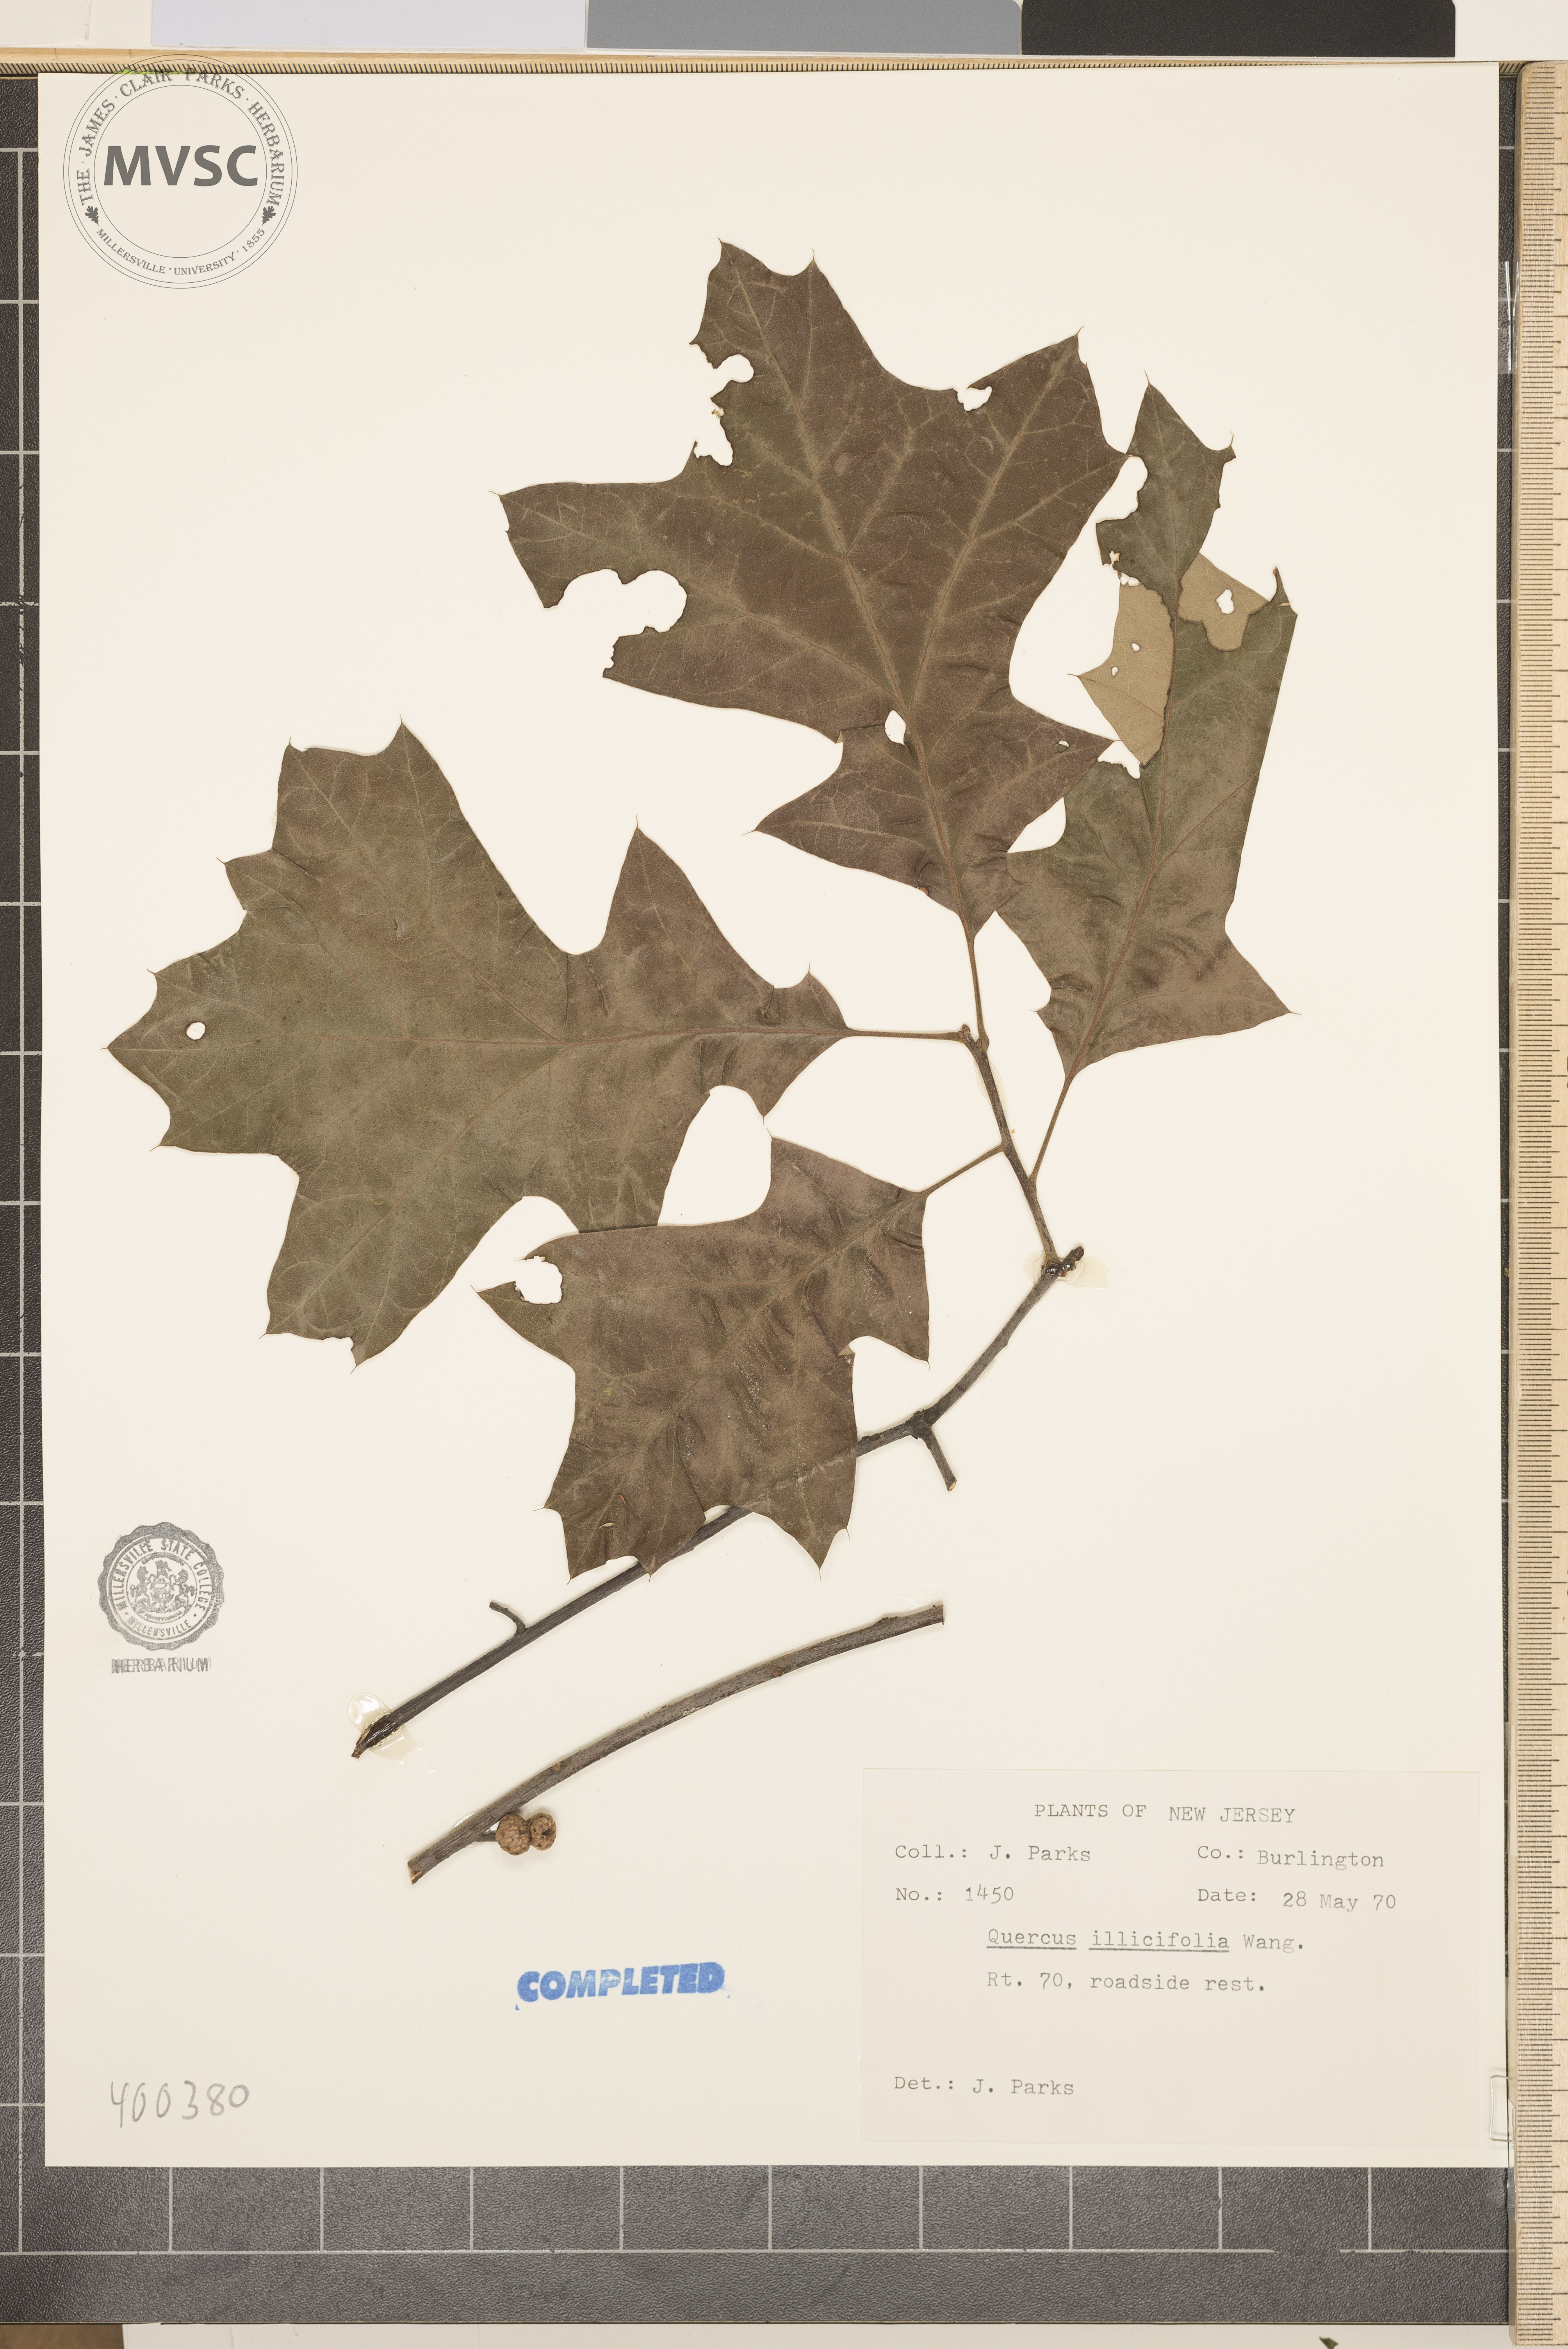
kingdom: Plantae
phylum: Tracheophyta
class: Magnoliopsida
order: Fagales
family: Fagaceae
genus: Quercus
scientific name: Quercus ilicifolia
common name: Bear oak
